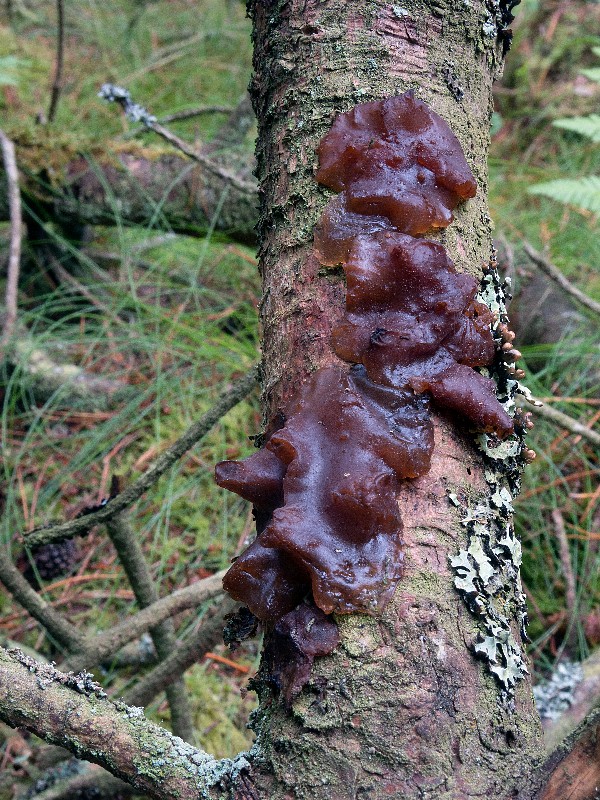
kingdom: Fungi
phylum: Basidiomycota
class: Agaricomycetes
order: Auriculariales
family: Auriculariaceae
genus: Exidia
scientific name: Exidia saccharina
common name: kandis-bævretop
